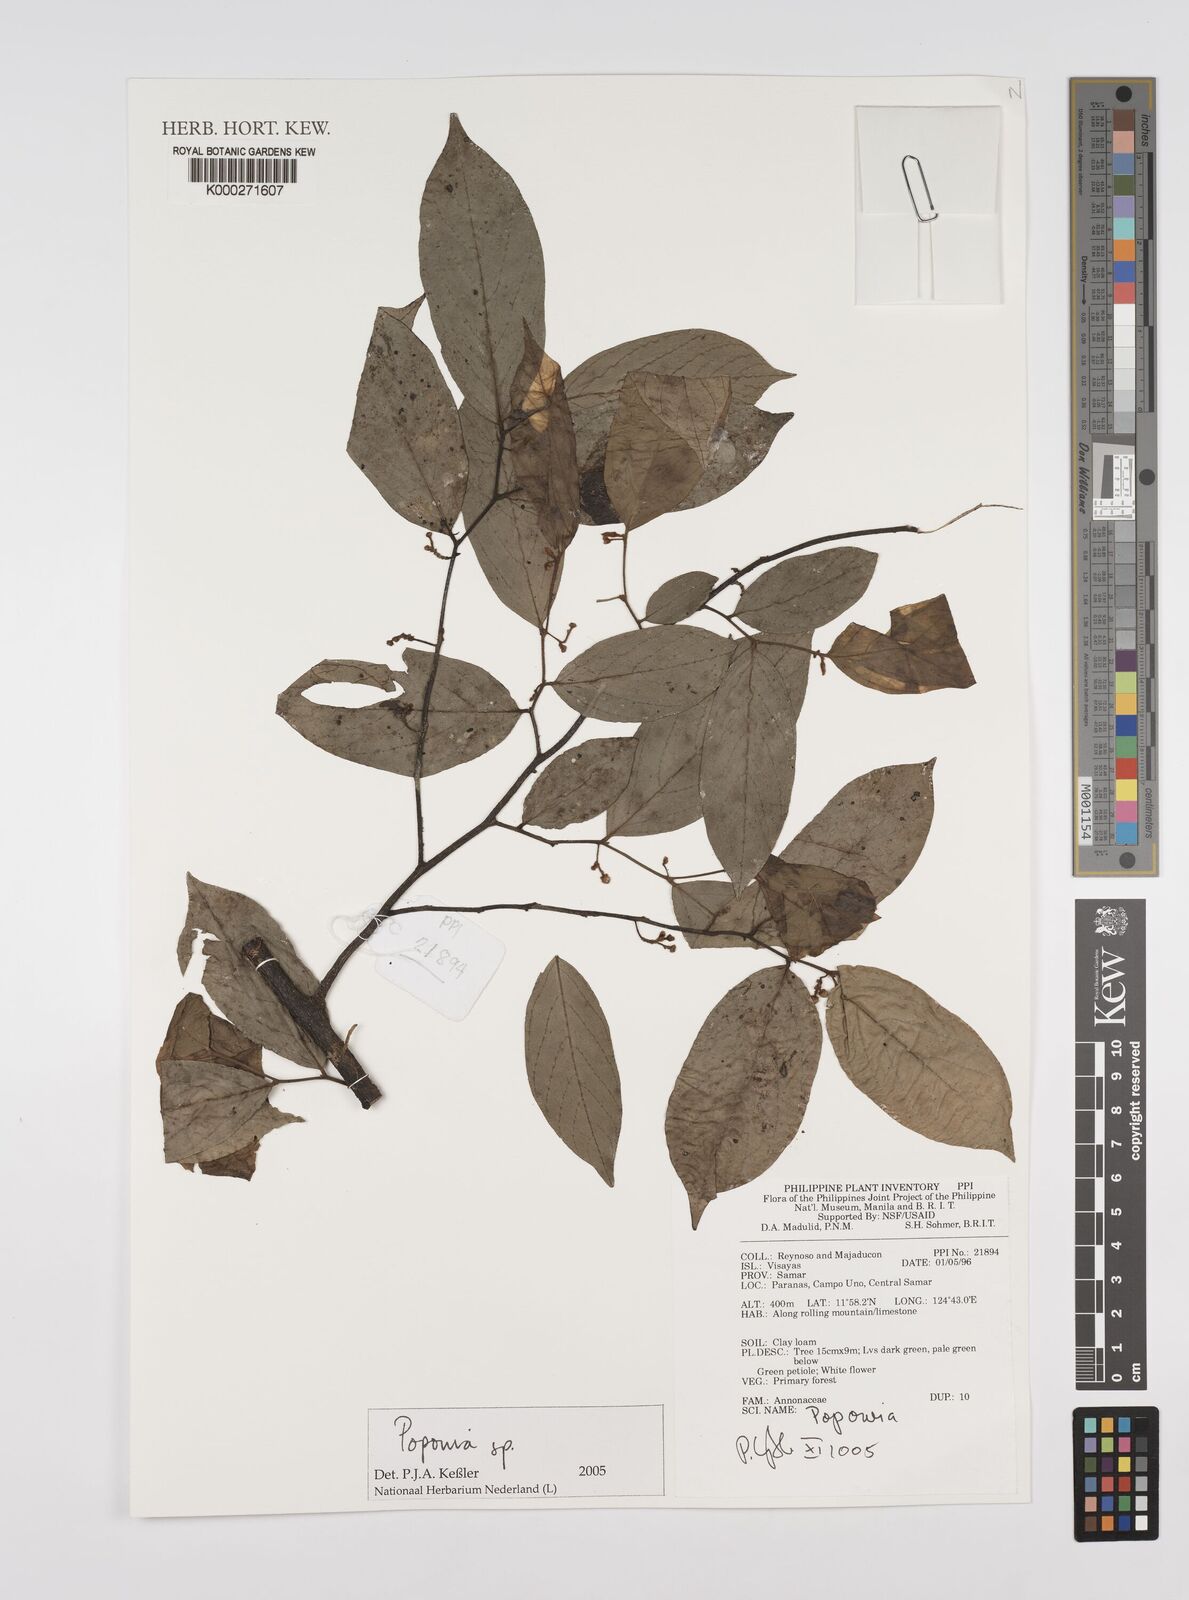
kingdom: Plantae
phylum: Tracheophyta
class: Magnoliopsida
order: Magnoliales
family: Annonaceae
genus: Cananga
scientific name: Cananga odorata
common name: Cananga tree
